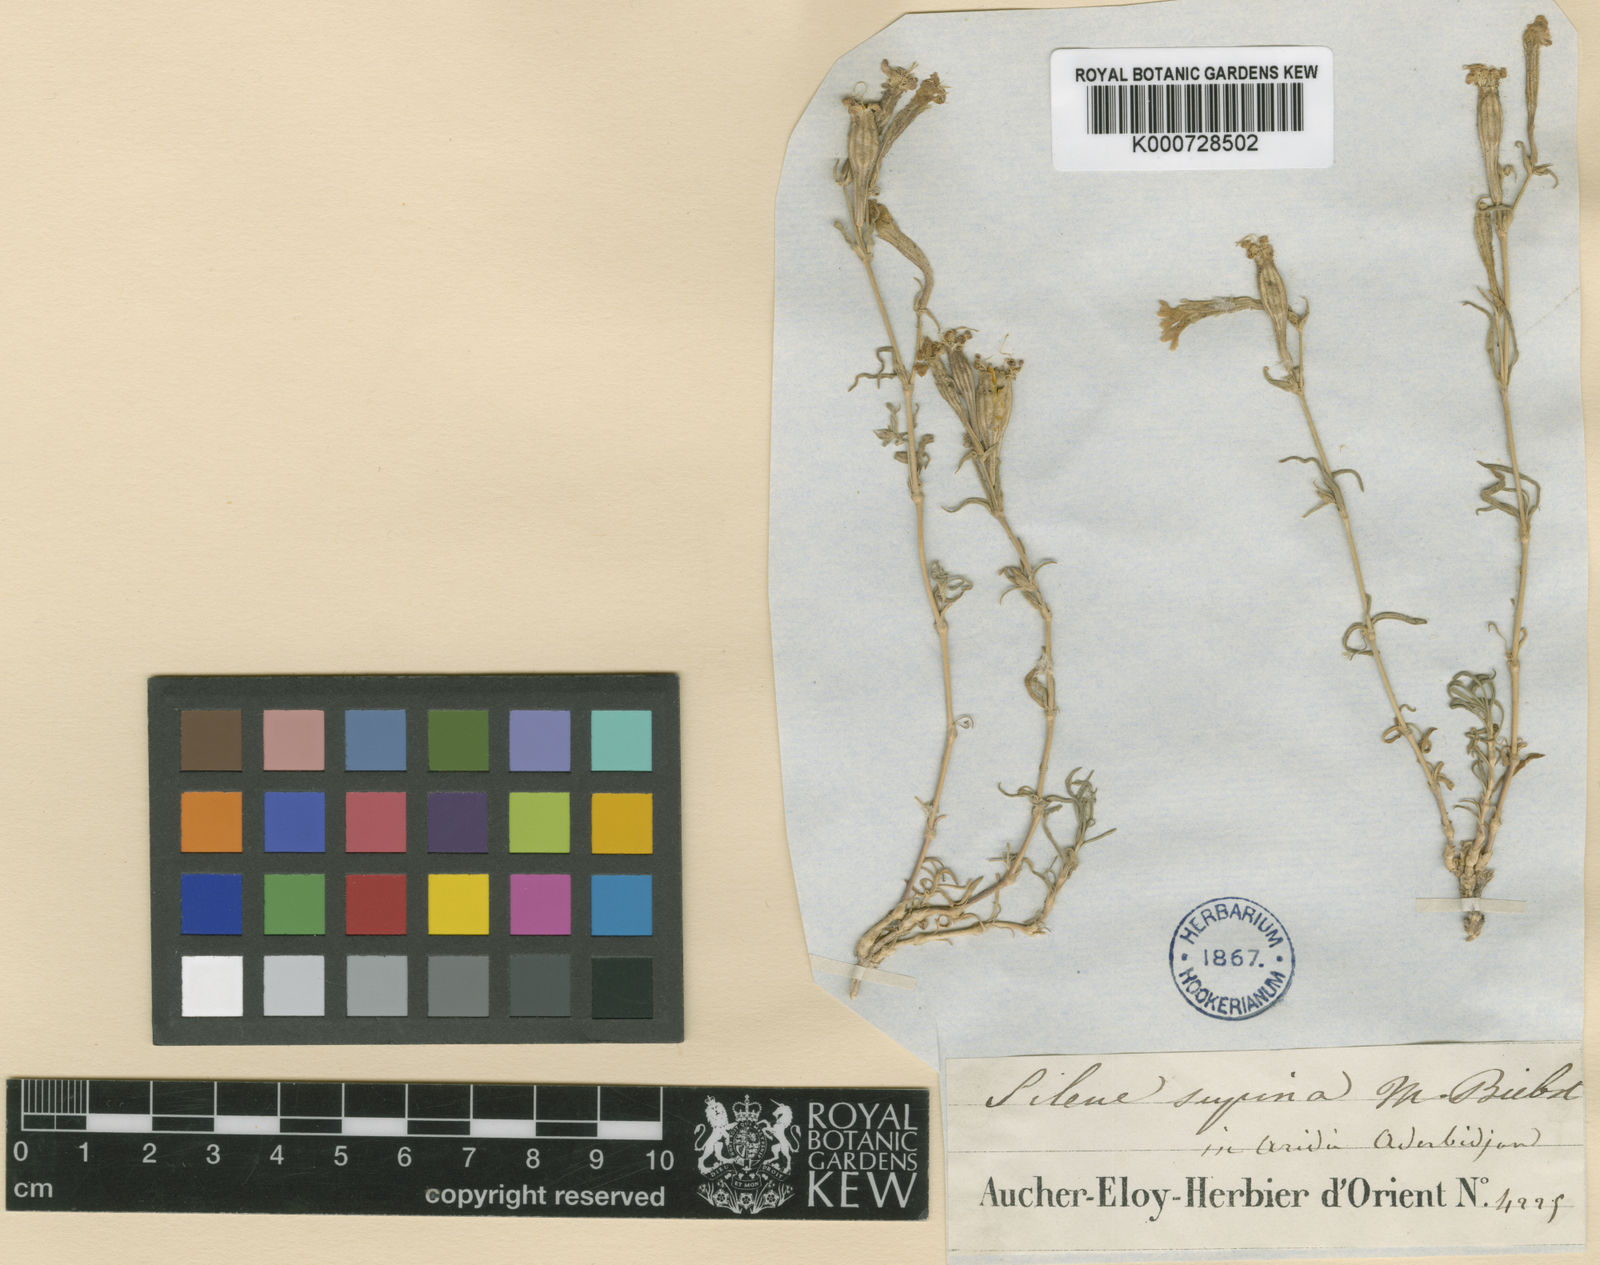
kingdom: Plantae
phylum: Tracheophyta
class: Magnoliopsida
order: Caryophyllales
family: Caryophyllaceae
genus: Silene
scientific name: Silene supina
